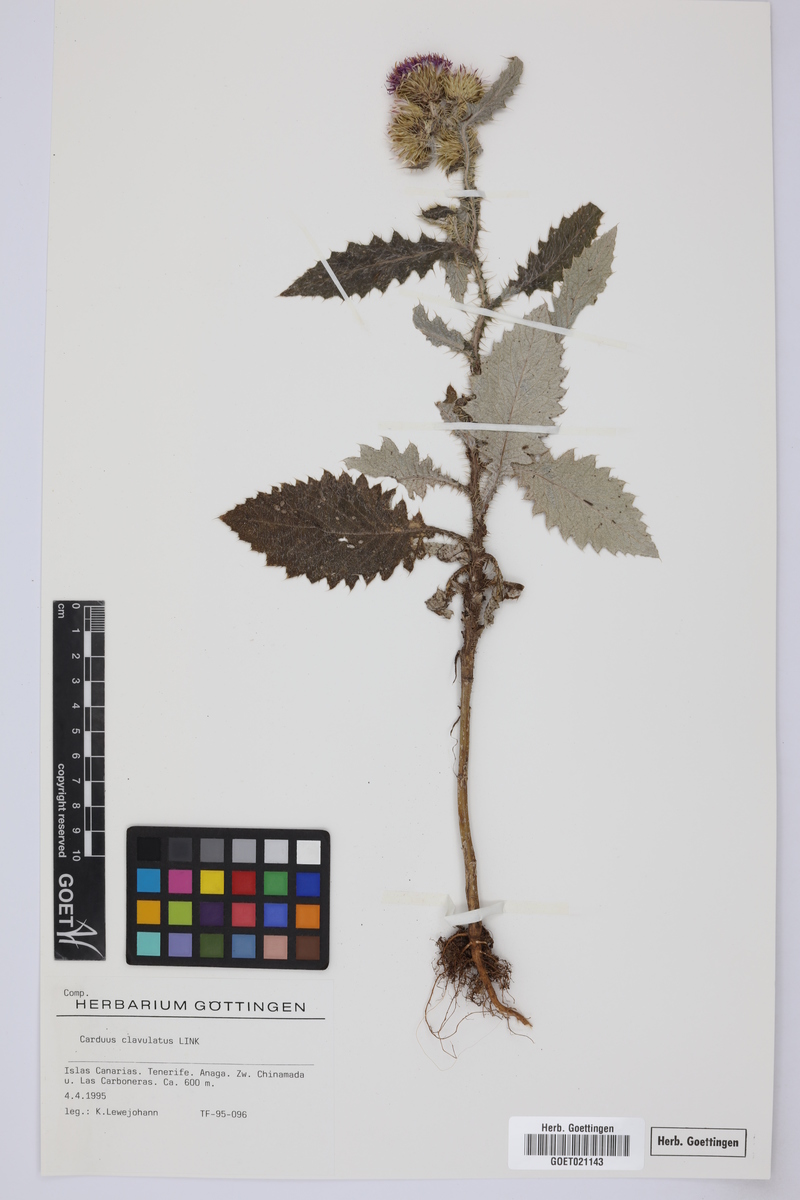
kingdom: Plantae
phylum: Tracheophyta
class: Magnoliopsida
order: Asterales
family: Asteraceae
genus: Carduus
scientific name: Carduus clavulatus
